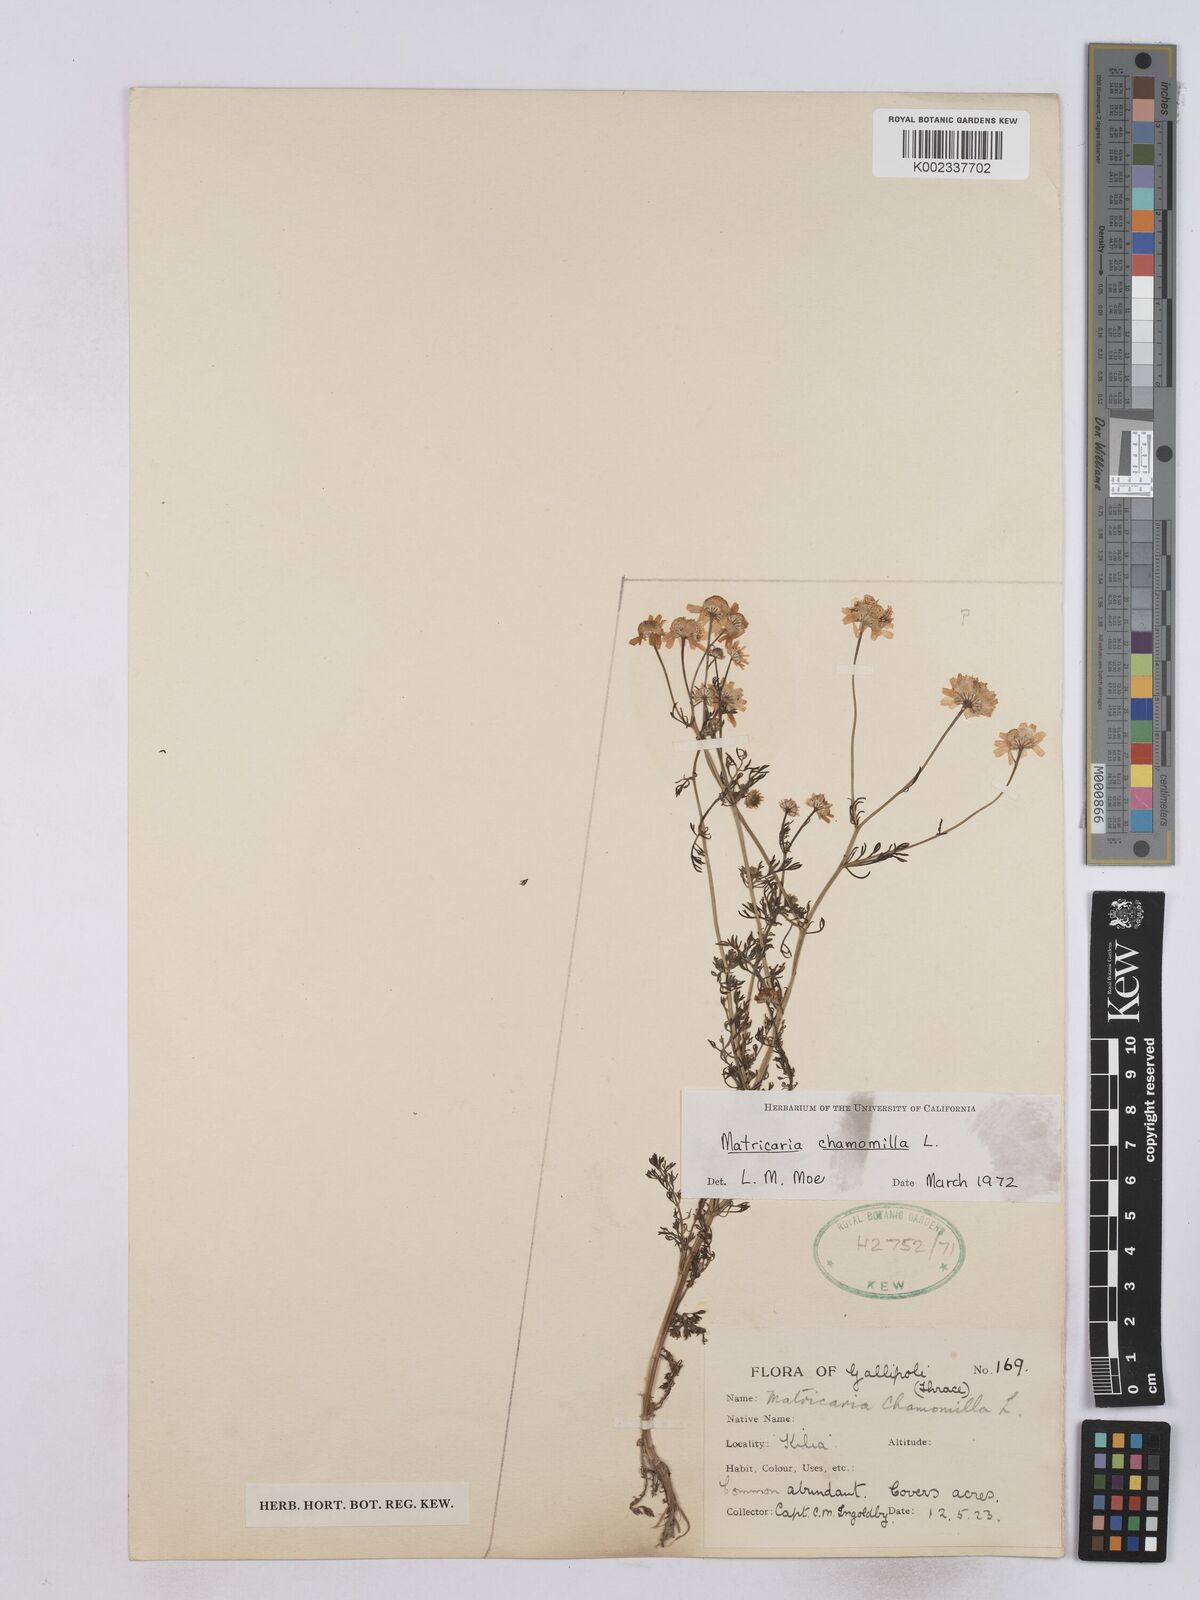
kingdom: Plantae
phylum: Tracheophyta
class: Magnoliopsida
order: Asterales
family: Asteraceae
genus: Matricaria
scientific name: Matricaria chamomilla
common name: Scented mayweed
